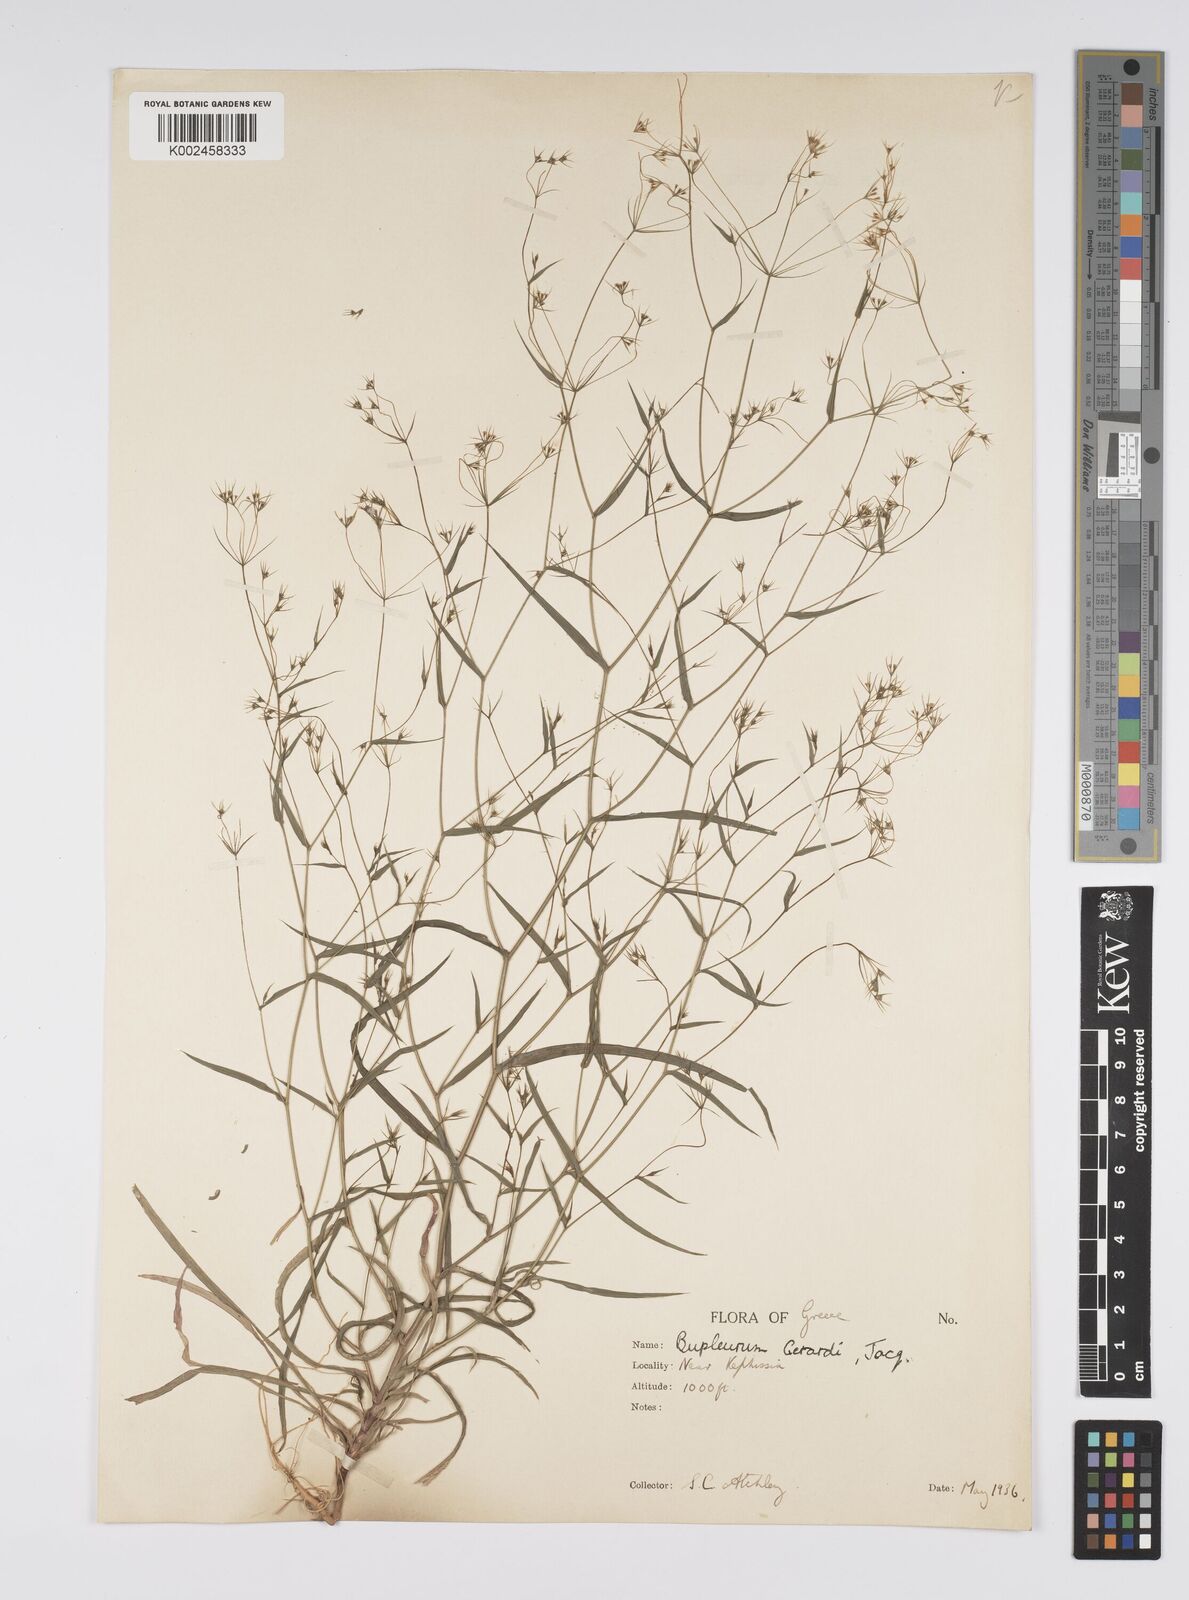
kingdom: Plantae
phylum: Tracheophyta
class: Magnoliopsida
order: Apiales
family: Apiaceae
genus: Bupleurum
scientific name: Bupleurum gerardi
